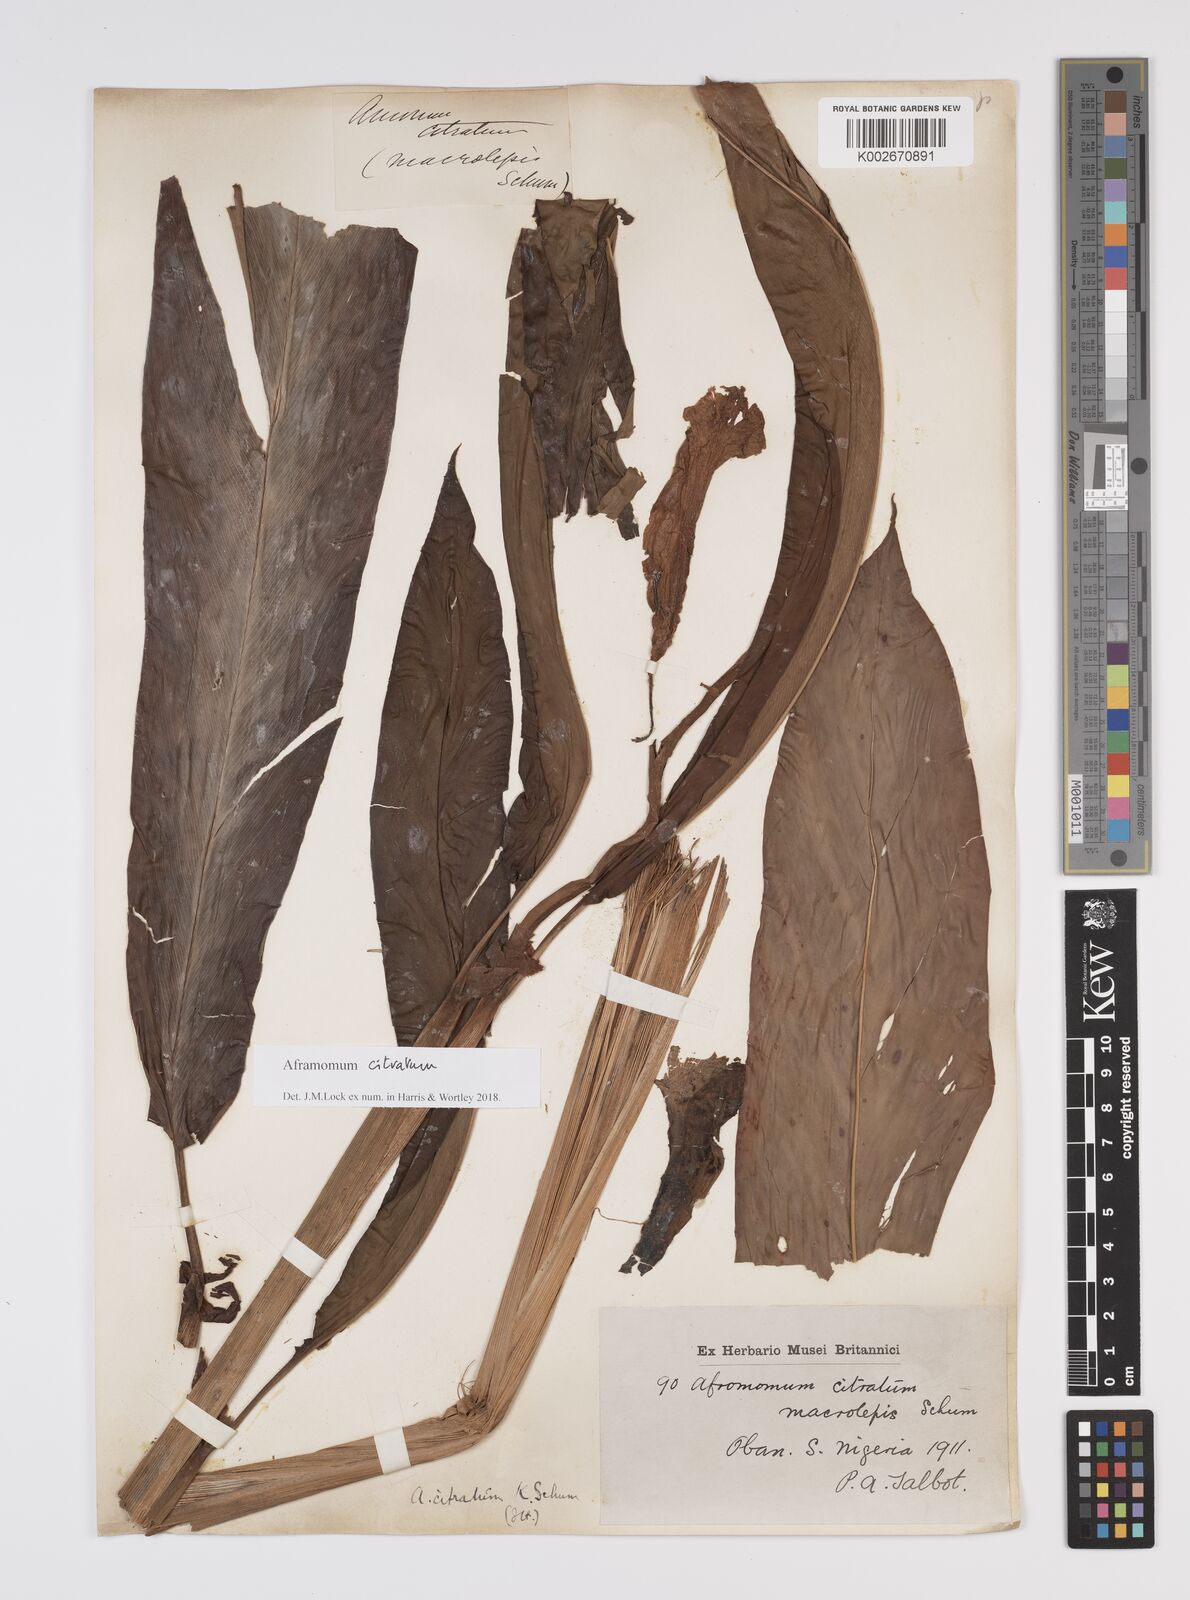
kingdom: Plantae
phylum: Tracheophyta
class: Liliopsida
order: Zingiberales
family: Zingiberaceae
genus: Aframomum
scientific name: Aframomum citratum
